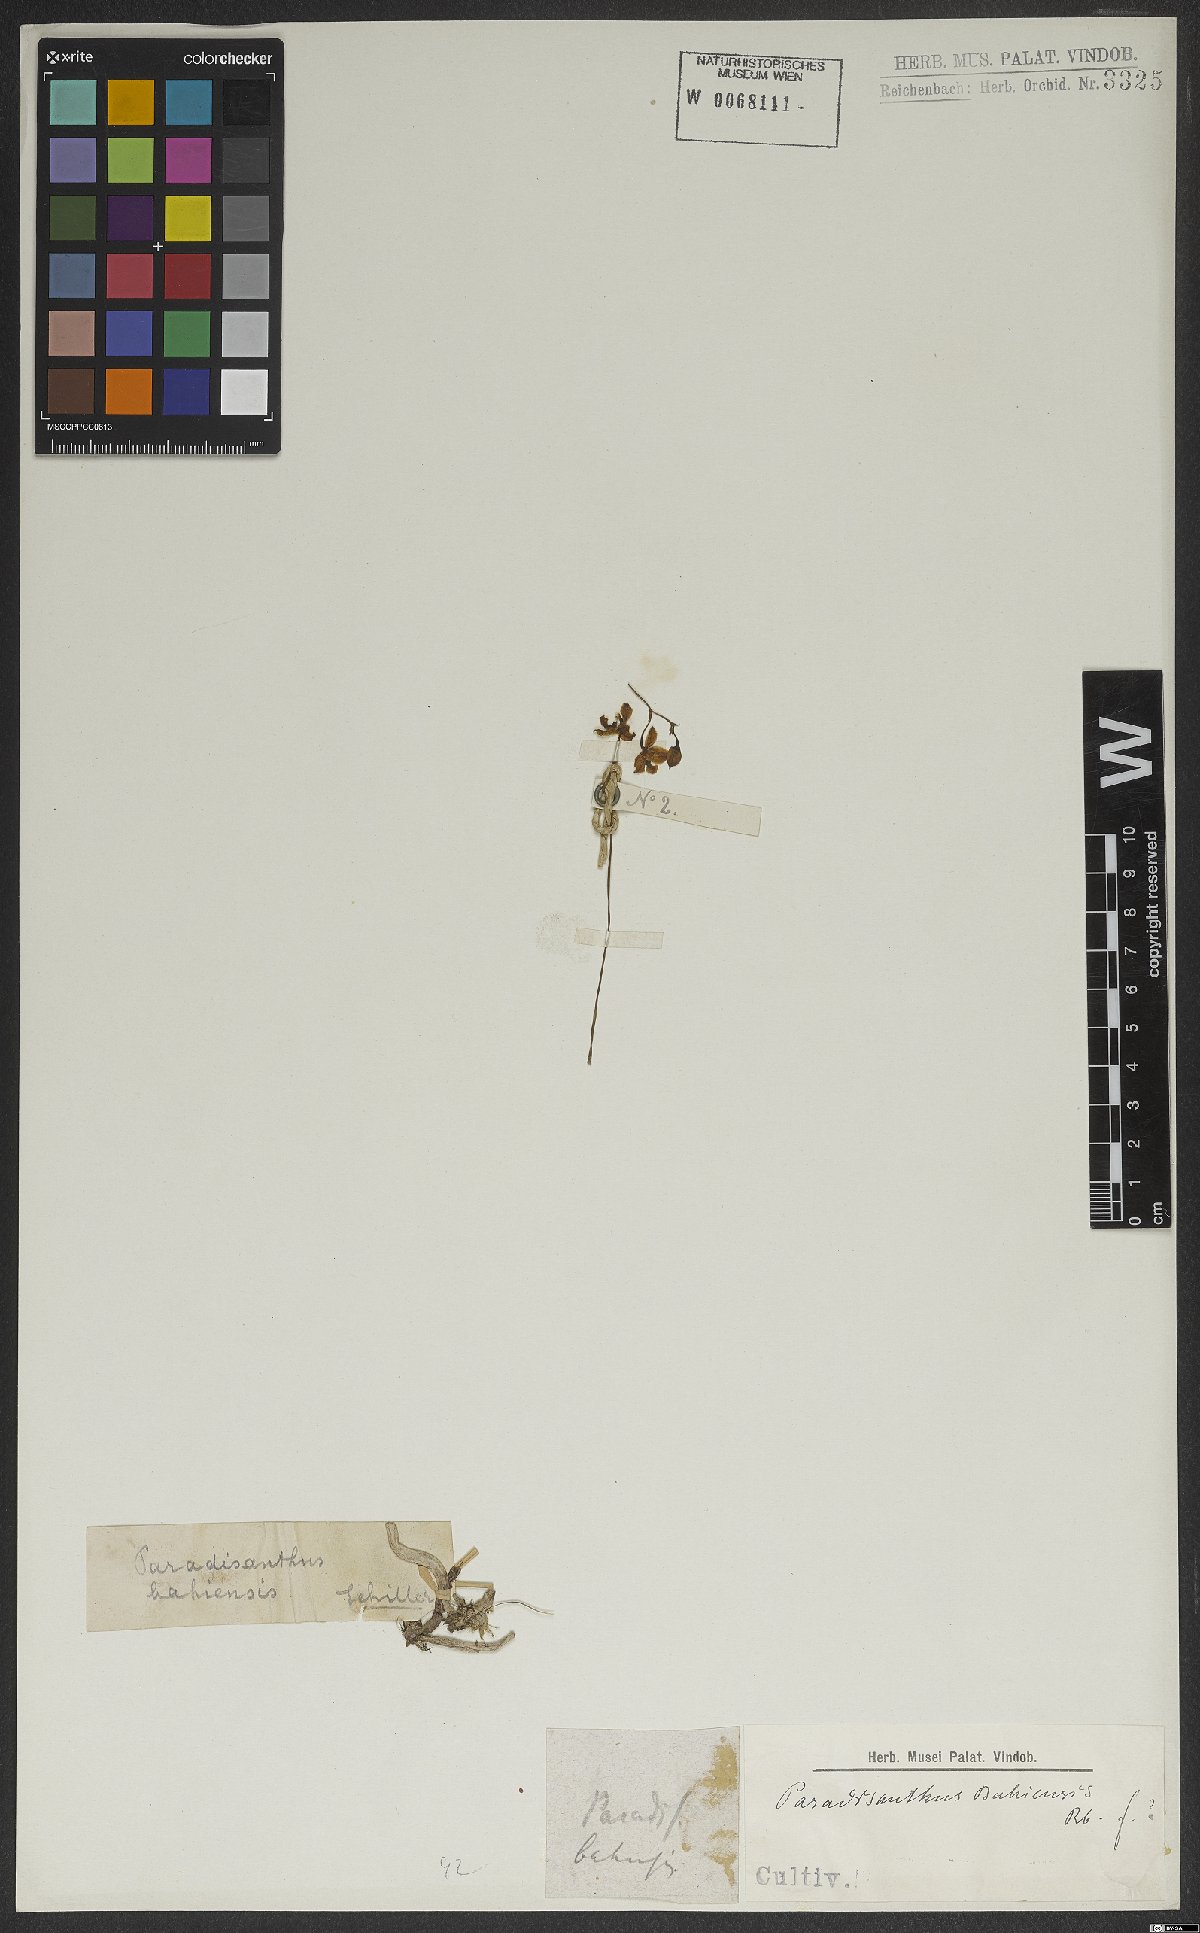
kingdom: Plantae
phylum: Tracheophyta
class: Liliopsida
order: Asparagales
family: Orchidaceae
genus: Paradisanthus
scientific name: Paradisanthus bahiensis
